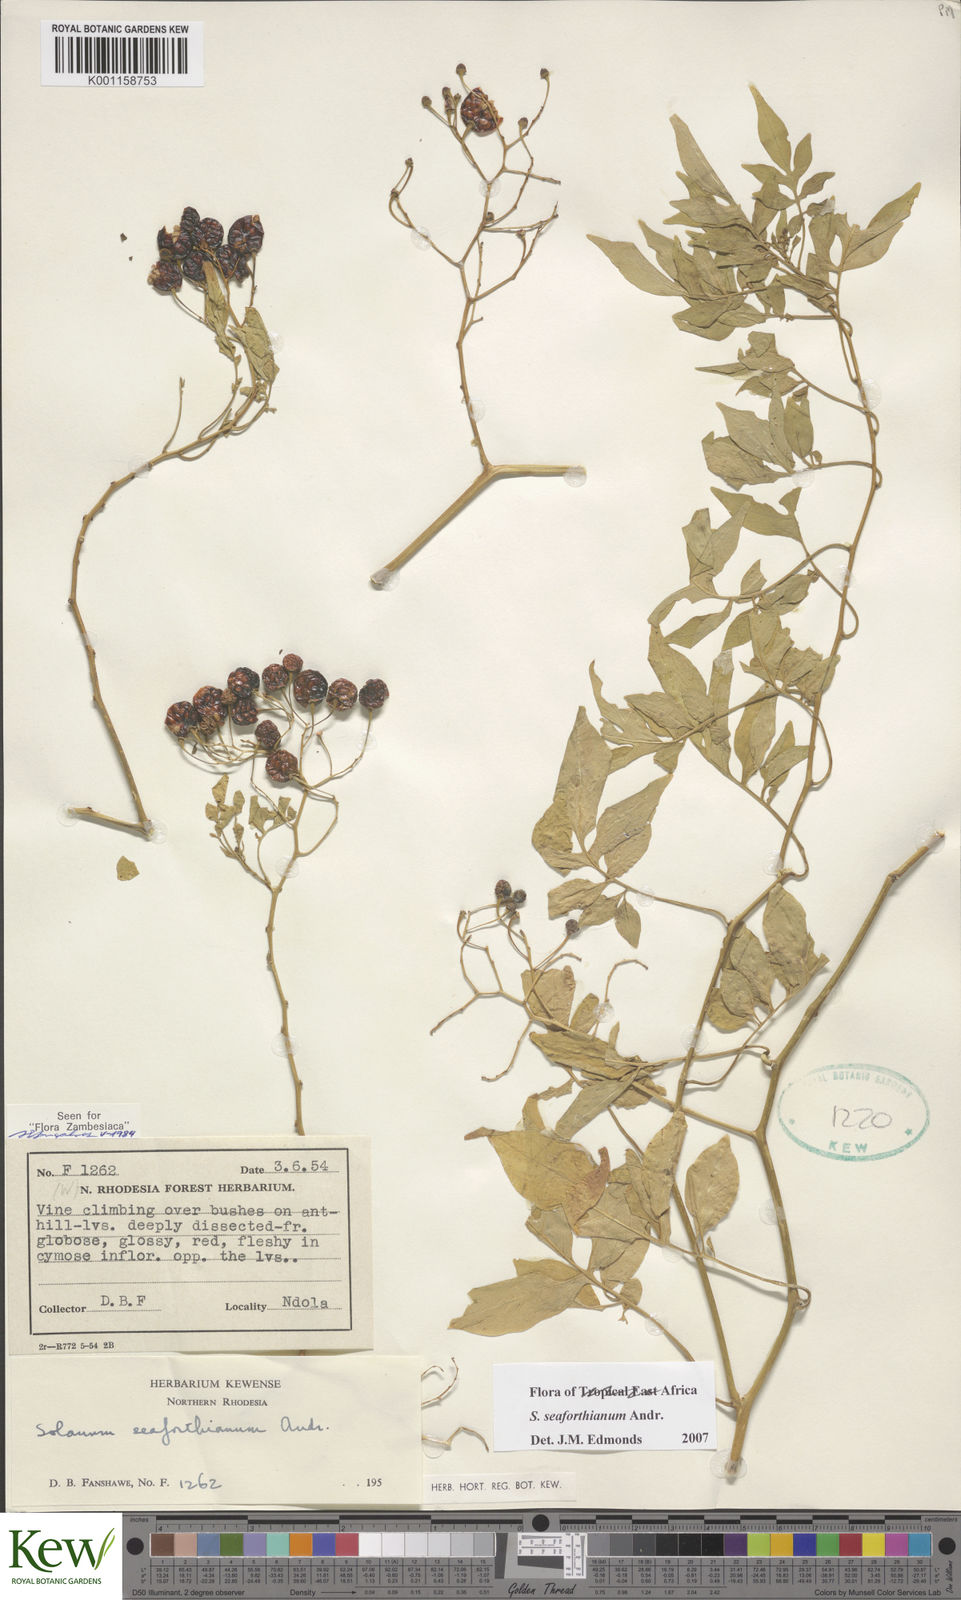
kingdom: Plantae
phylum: Tracheophyta
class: Magnoliopsida
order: Solanales
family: Solanaceae
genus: Solanum
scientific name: Solanum seaforthianum
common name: Brazilian nightshade
